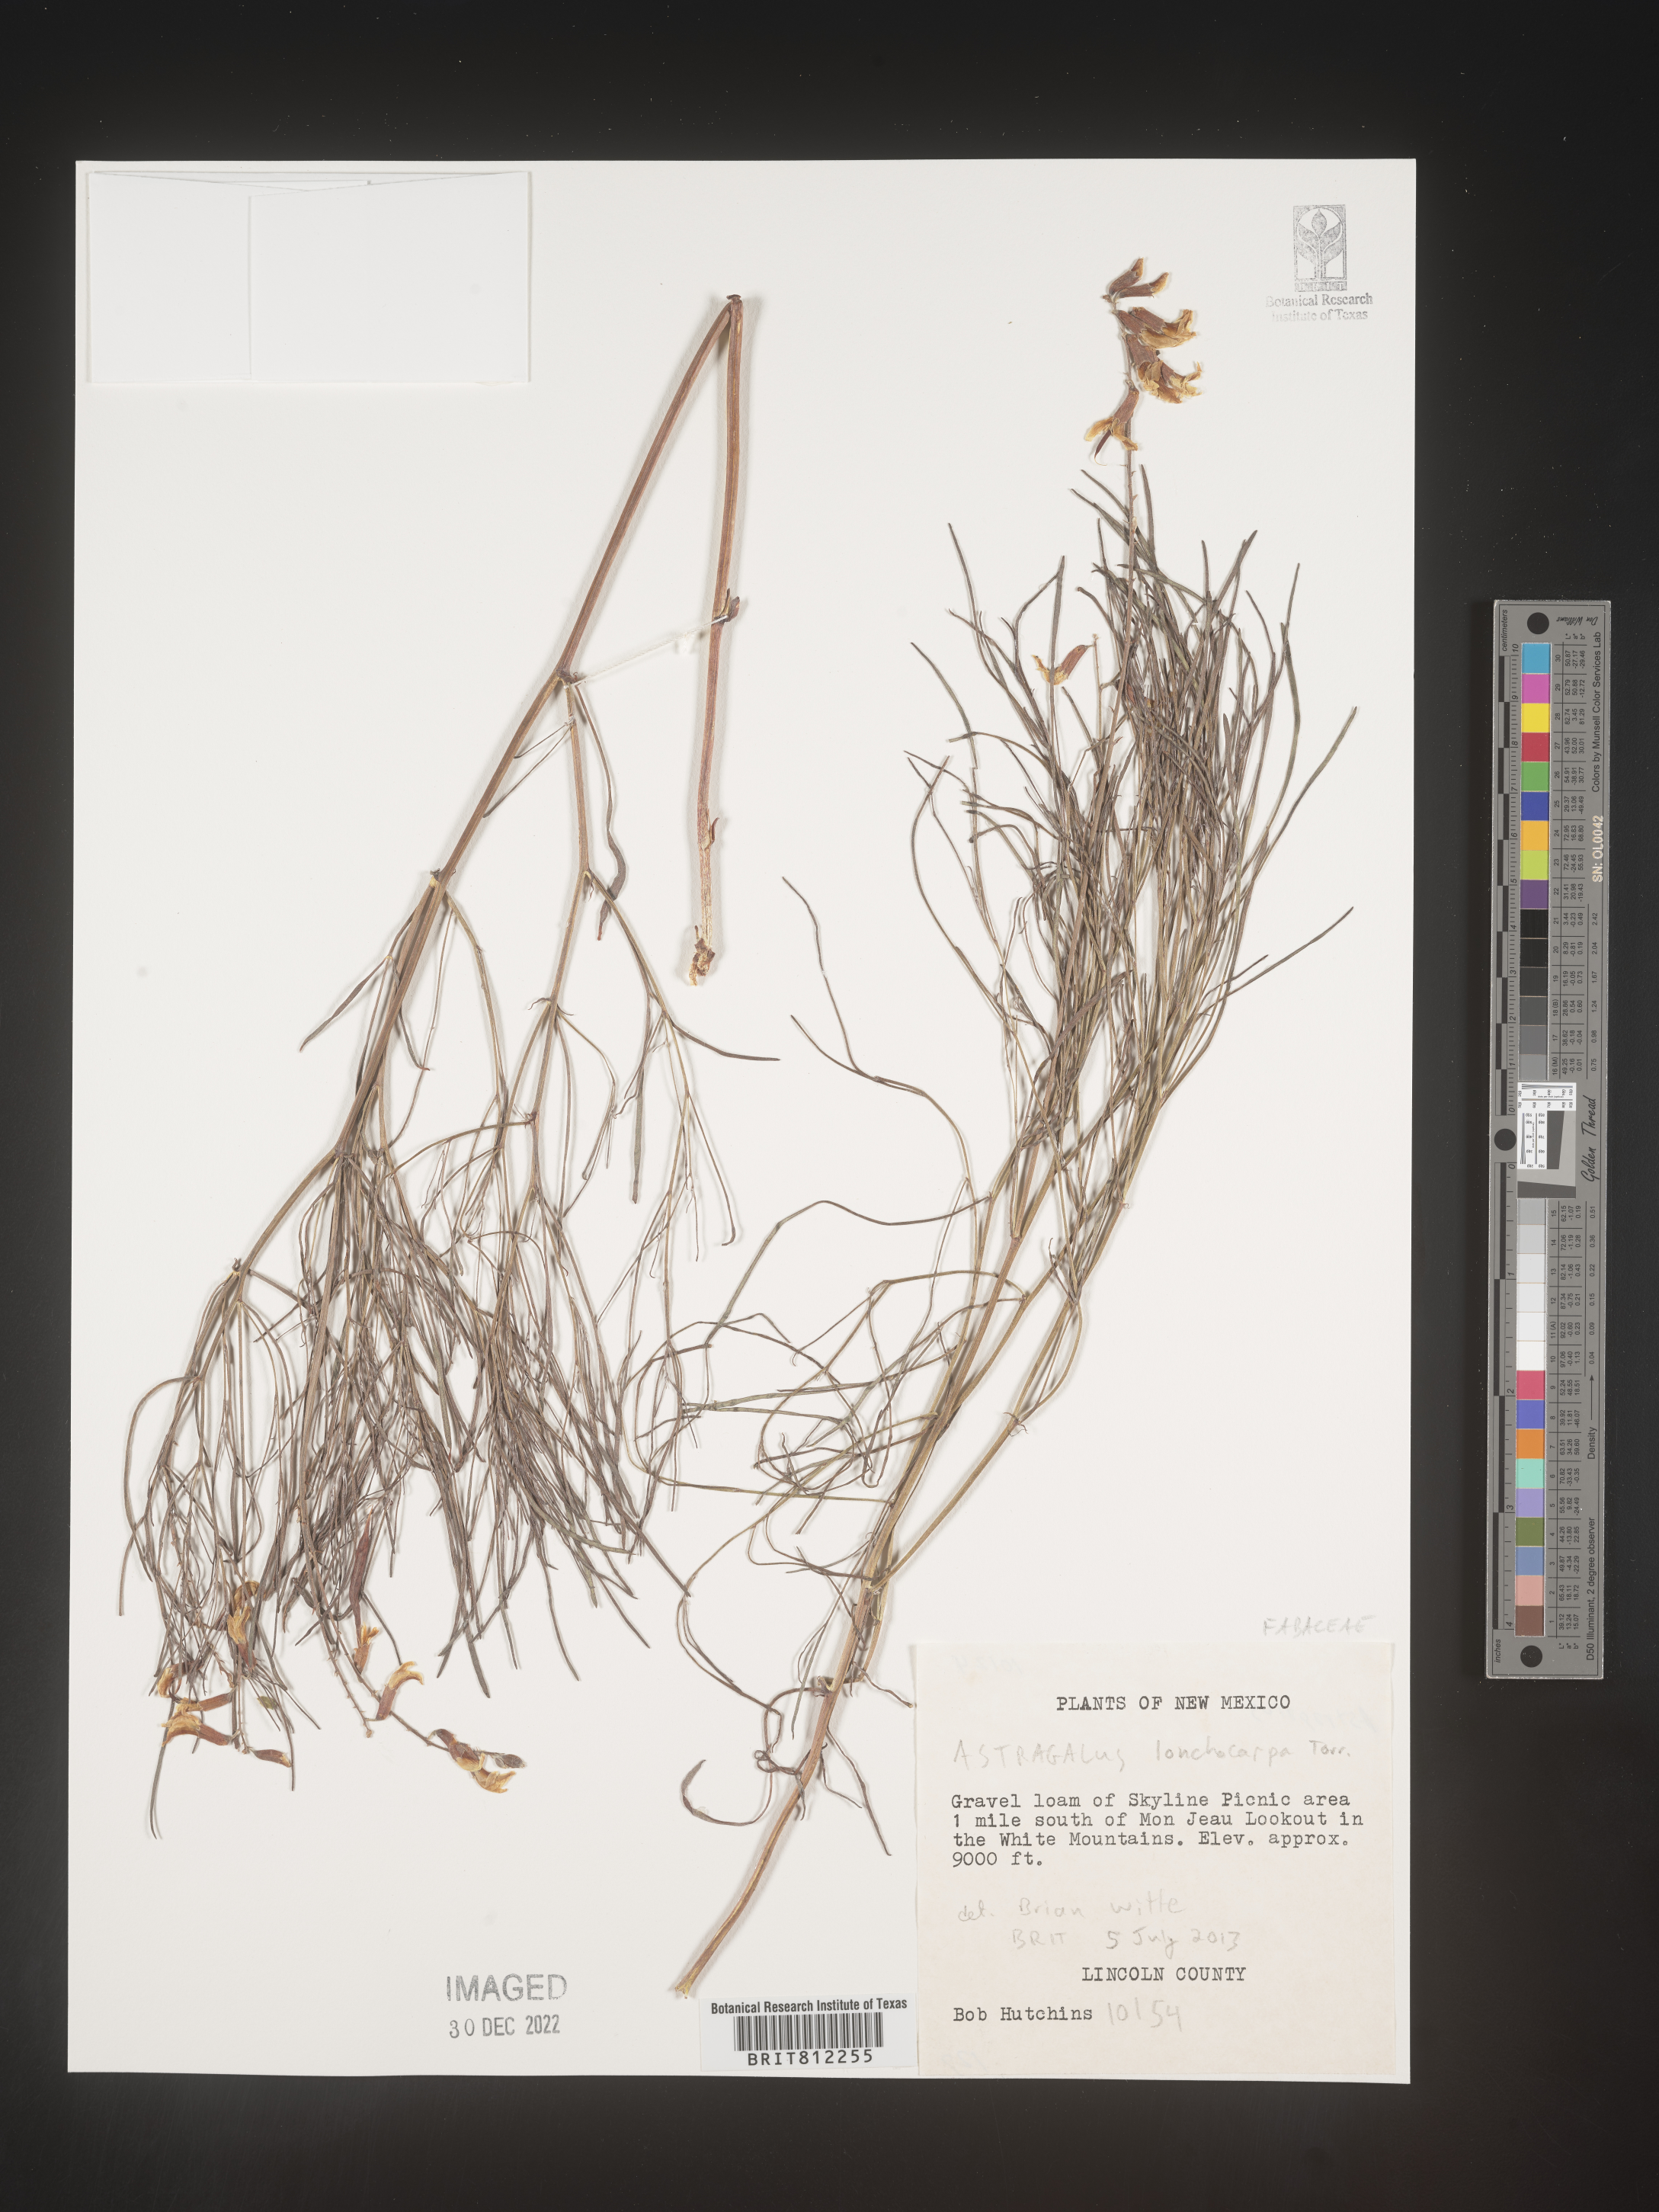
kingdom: Plantae
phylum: Tracheophyta
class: Magnoliopsida
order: Fabales
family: Fabaceae
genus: Astragalus
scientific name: Astragalus lonchocarpus
